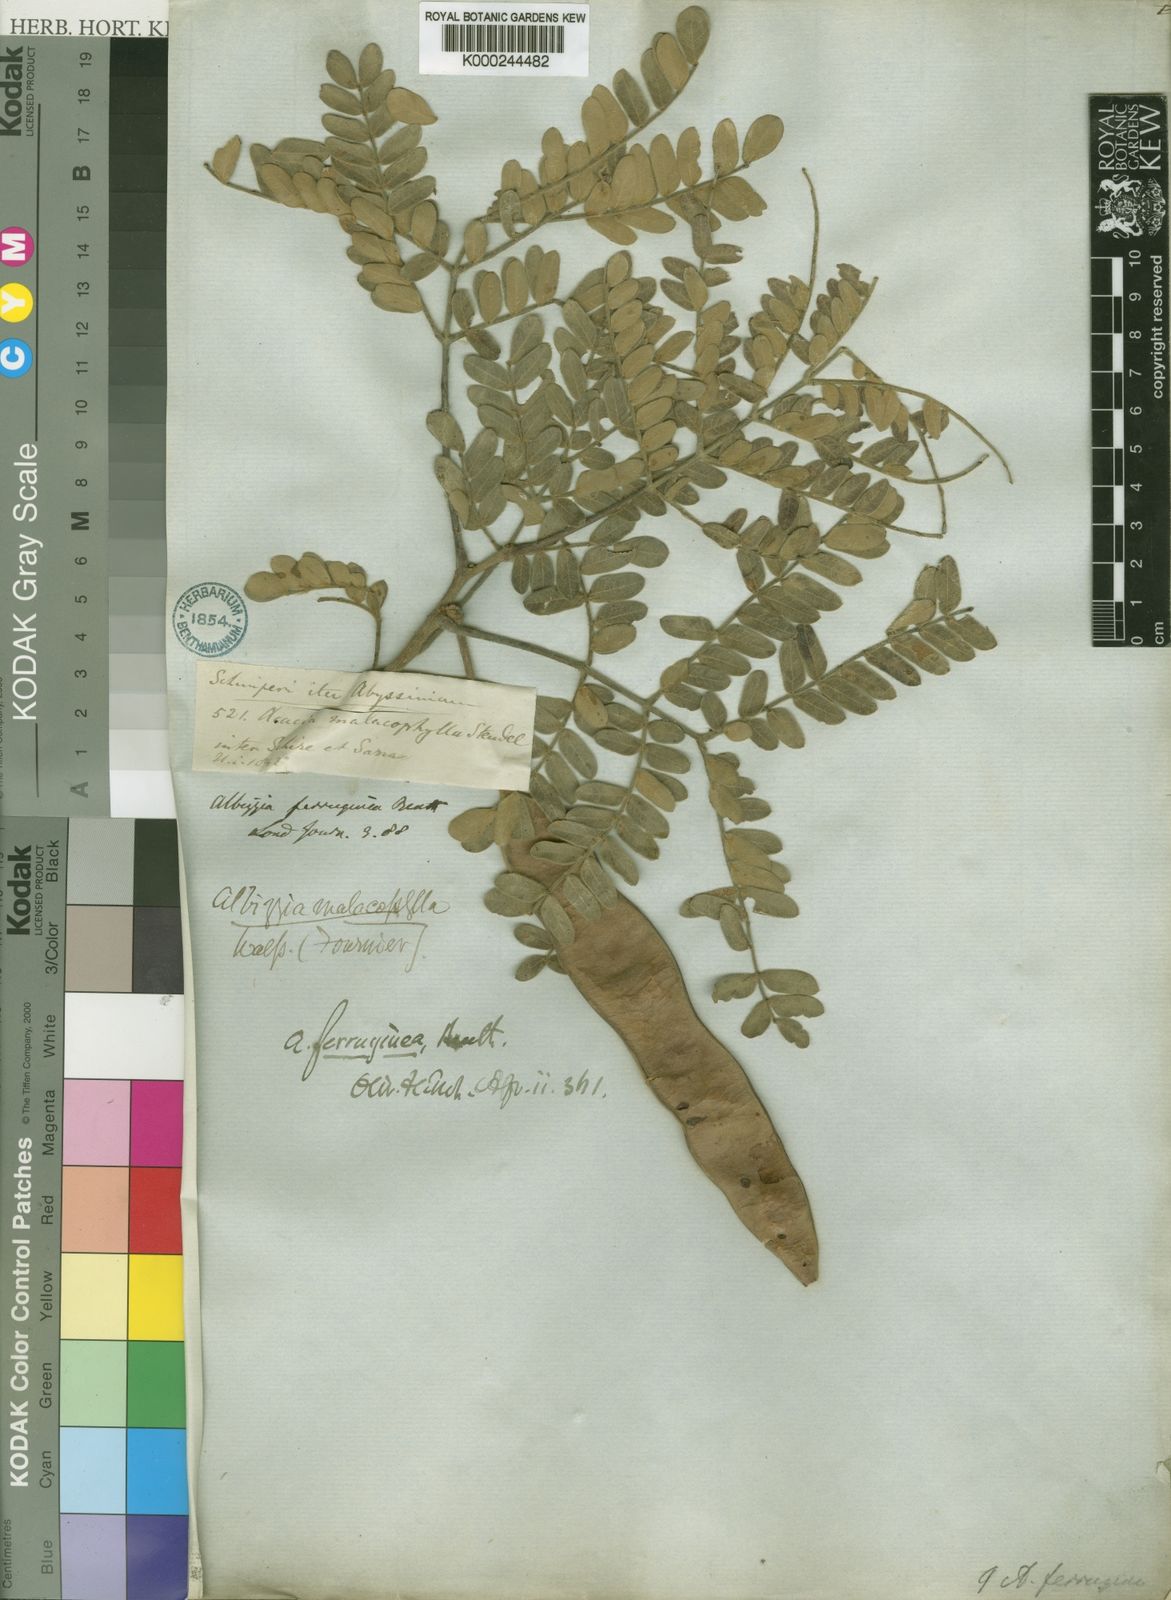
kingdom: Plantae
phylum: Tracheophyta
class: Magnoliopsida
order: Fabales
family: Fabaceae
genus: Albizia
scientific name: Albizia malacophylla
